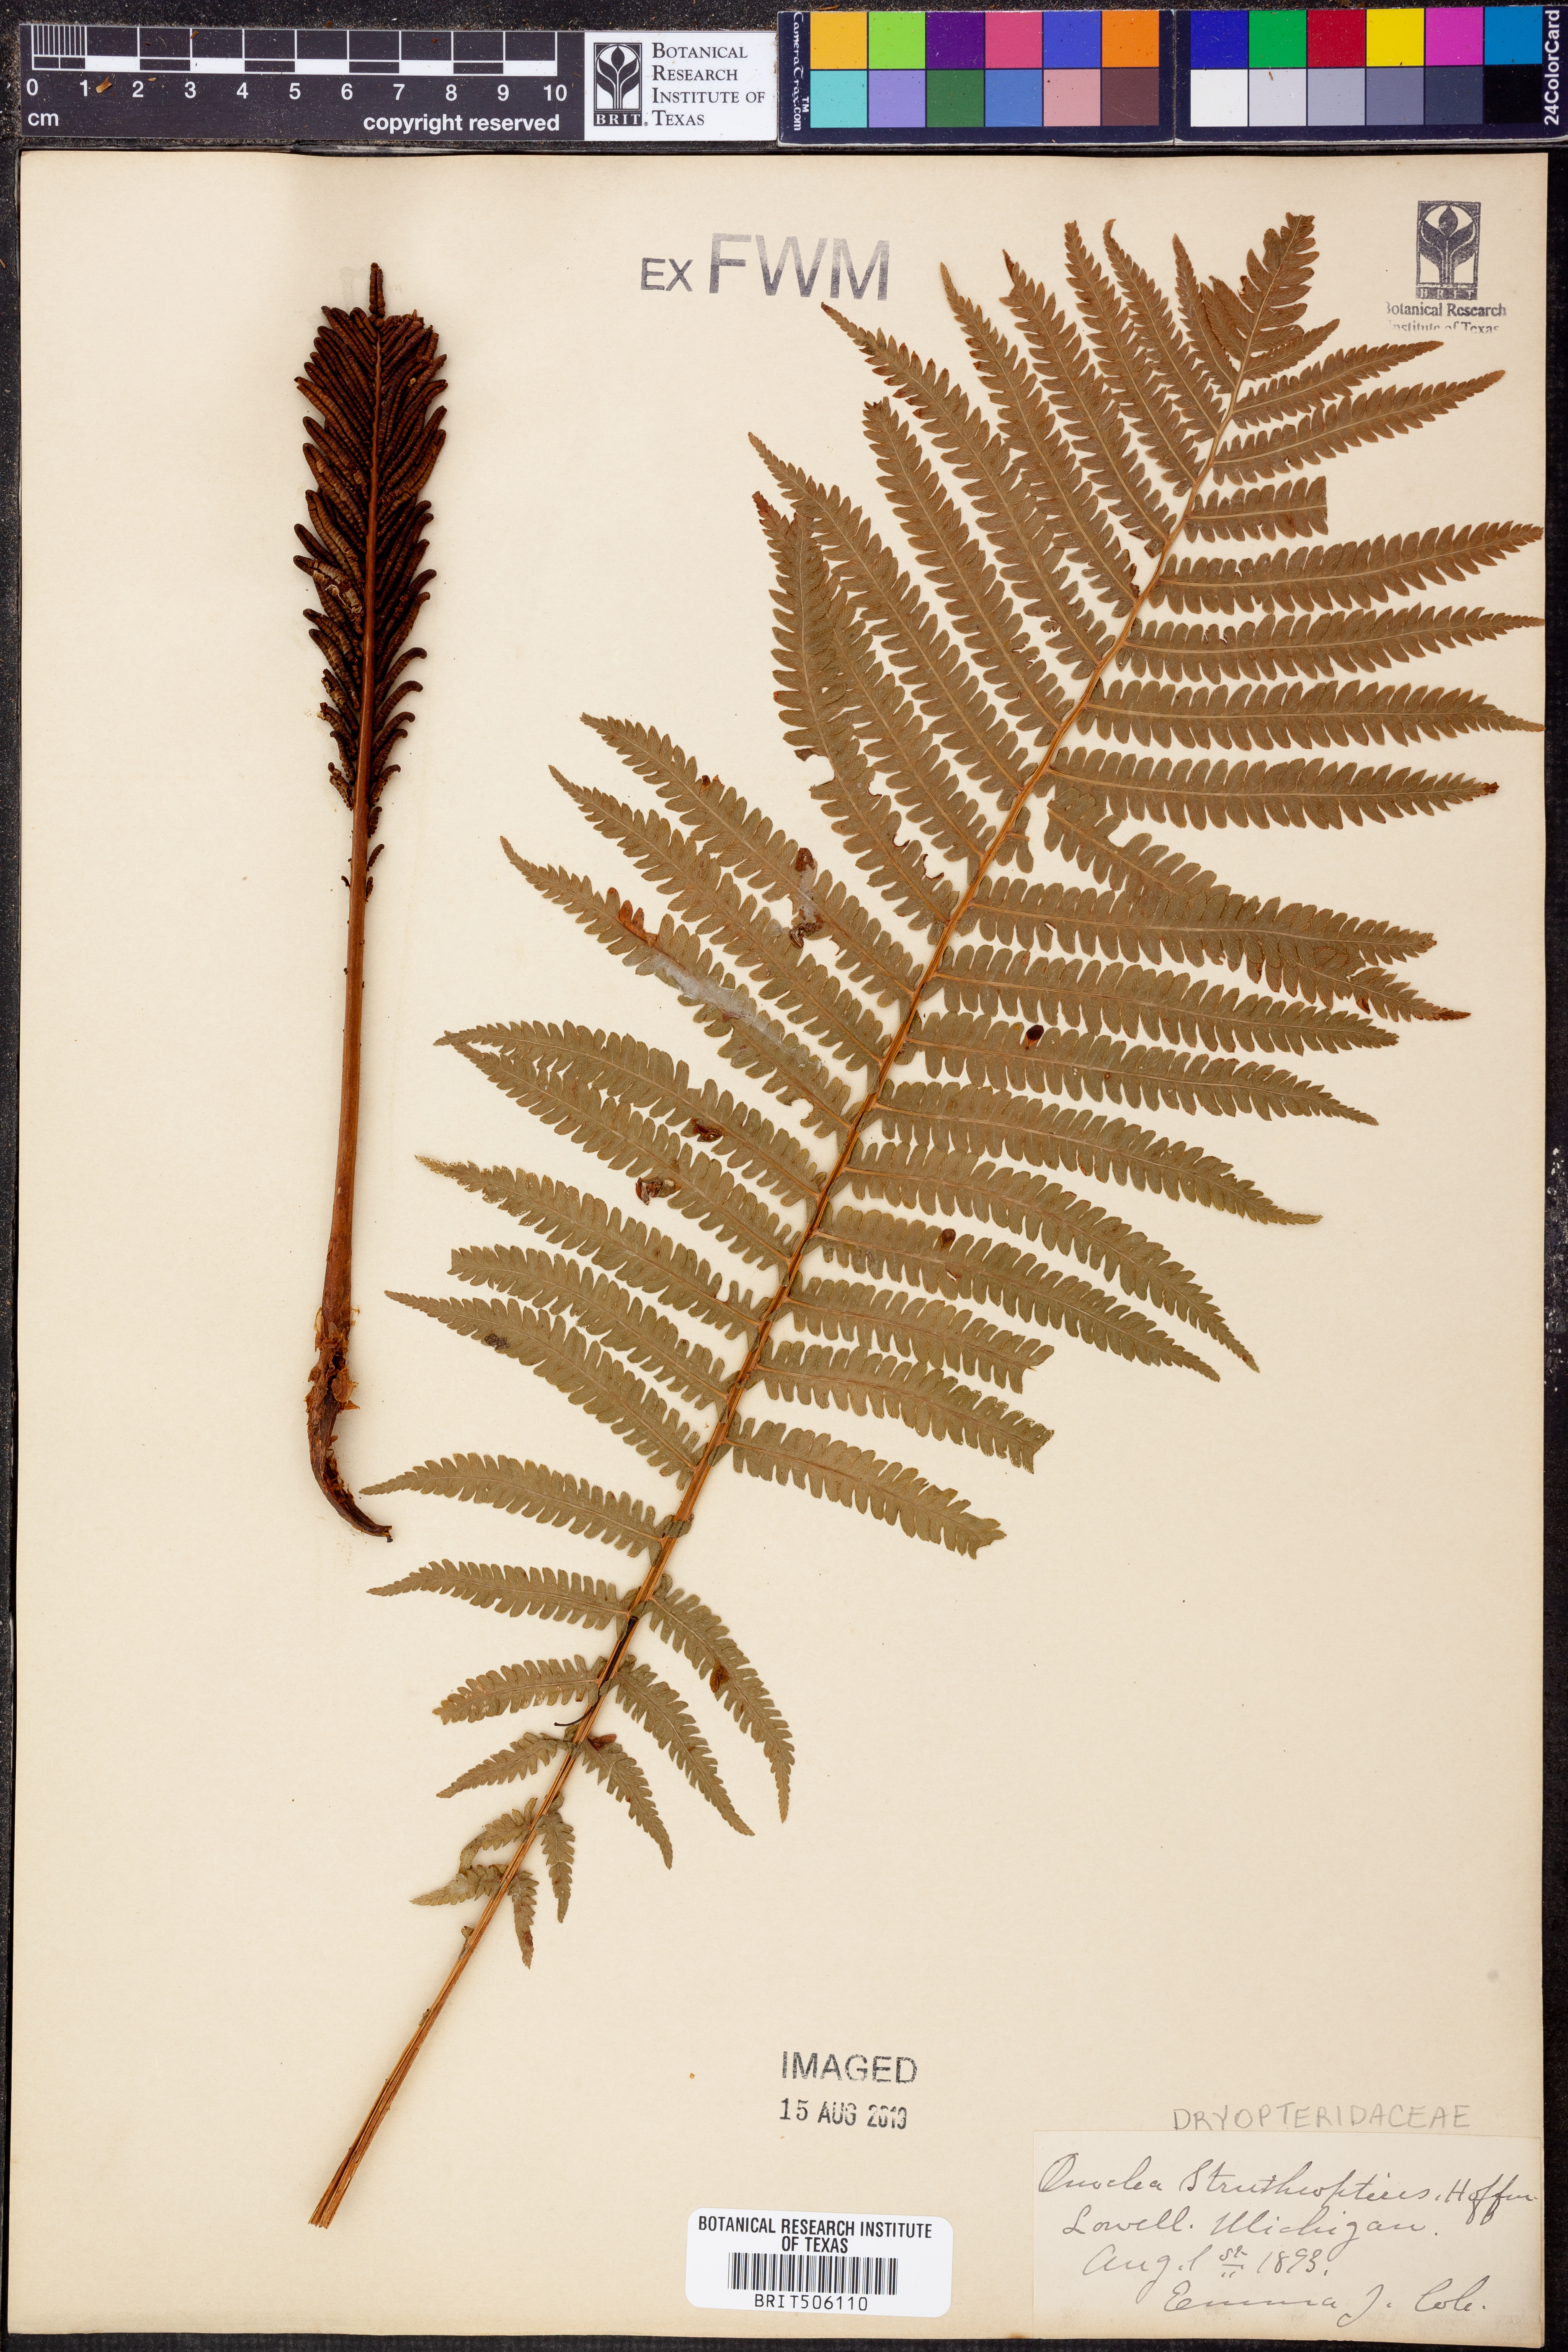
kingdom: Plantae
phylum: Tracheophyta
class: Polypodiopsida
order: Polypodiales
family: Onocleaceae
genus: Matteuccia
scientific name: Matteuccia struthiopteris
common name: Ostrich fern
